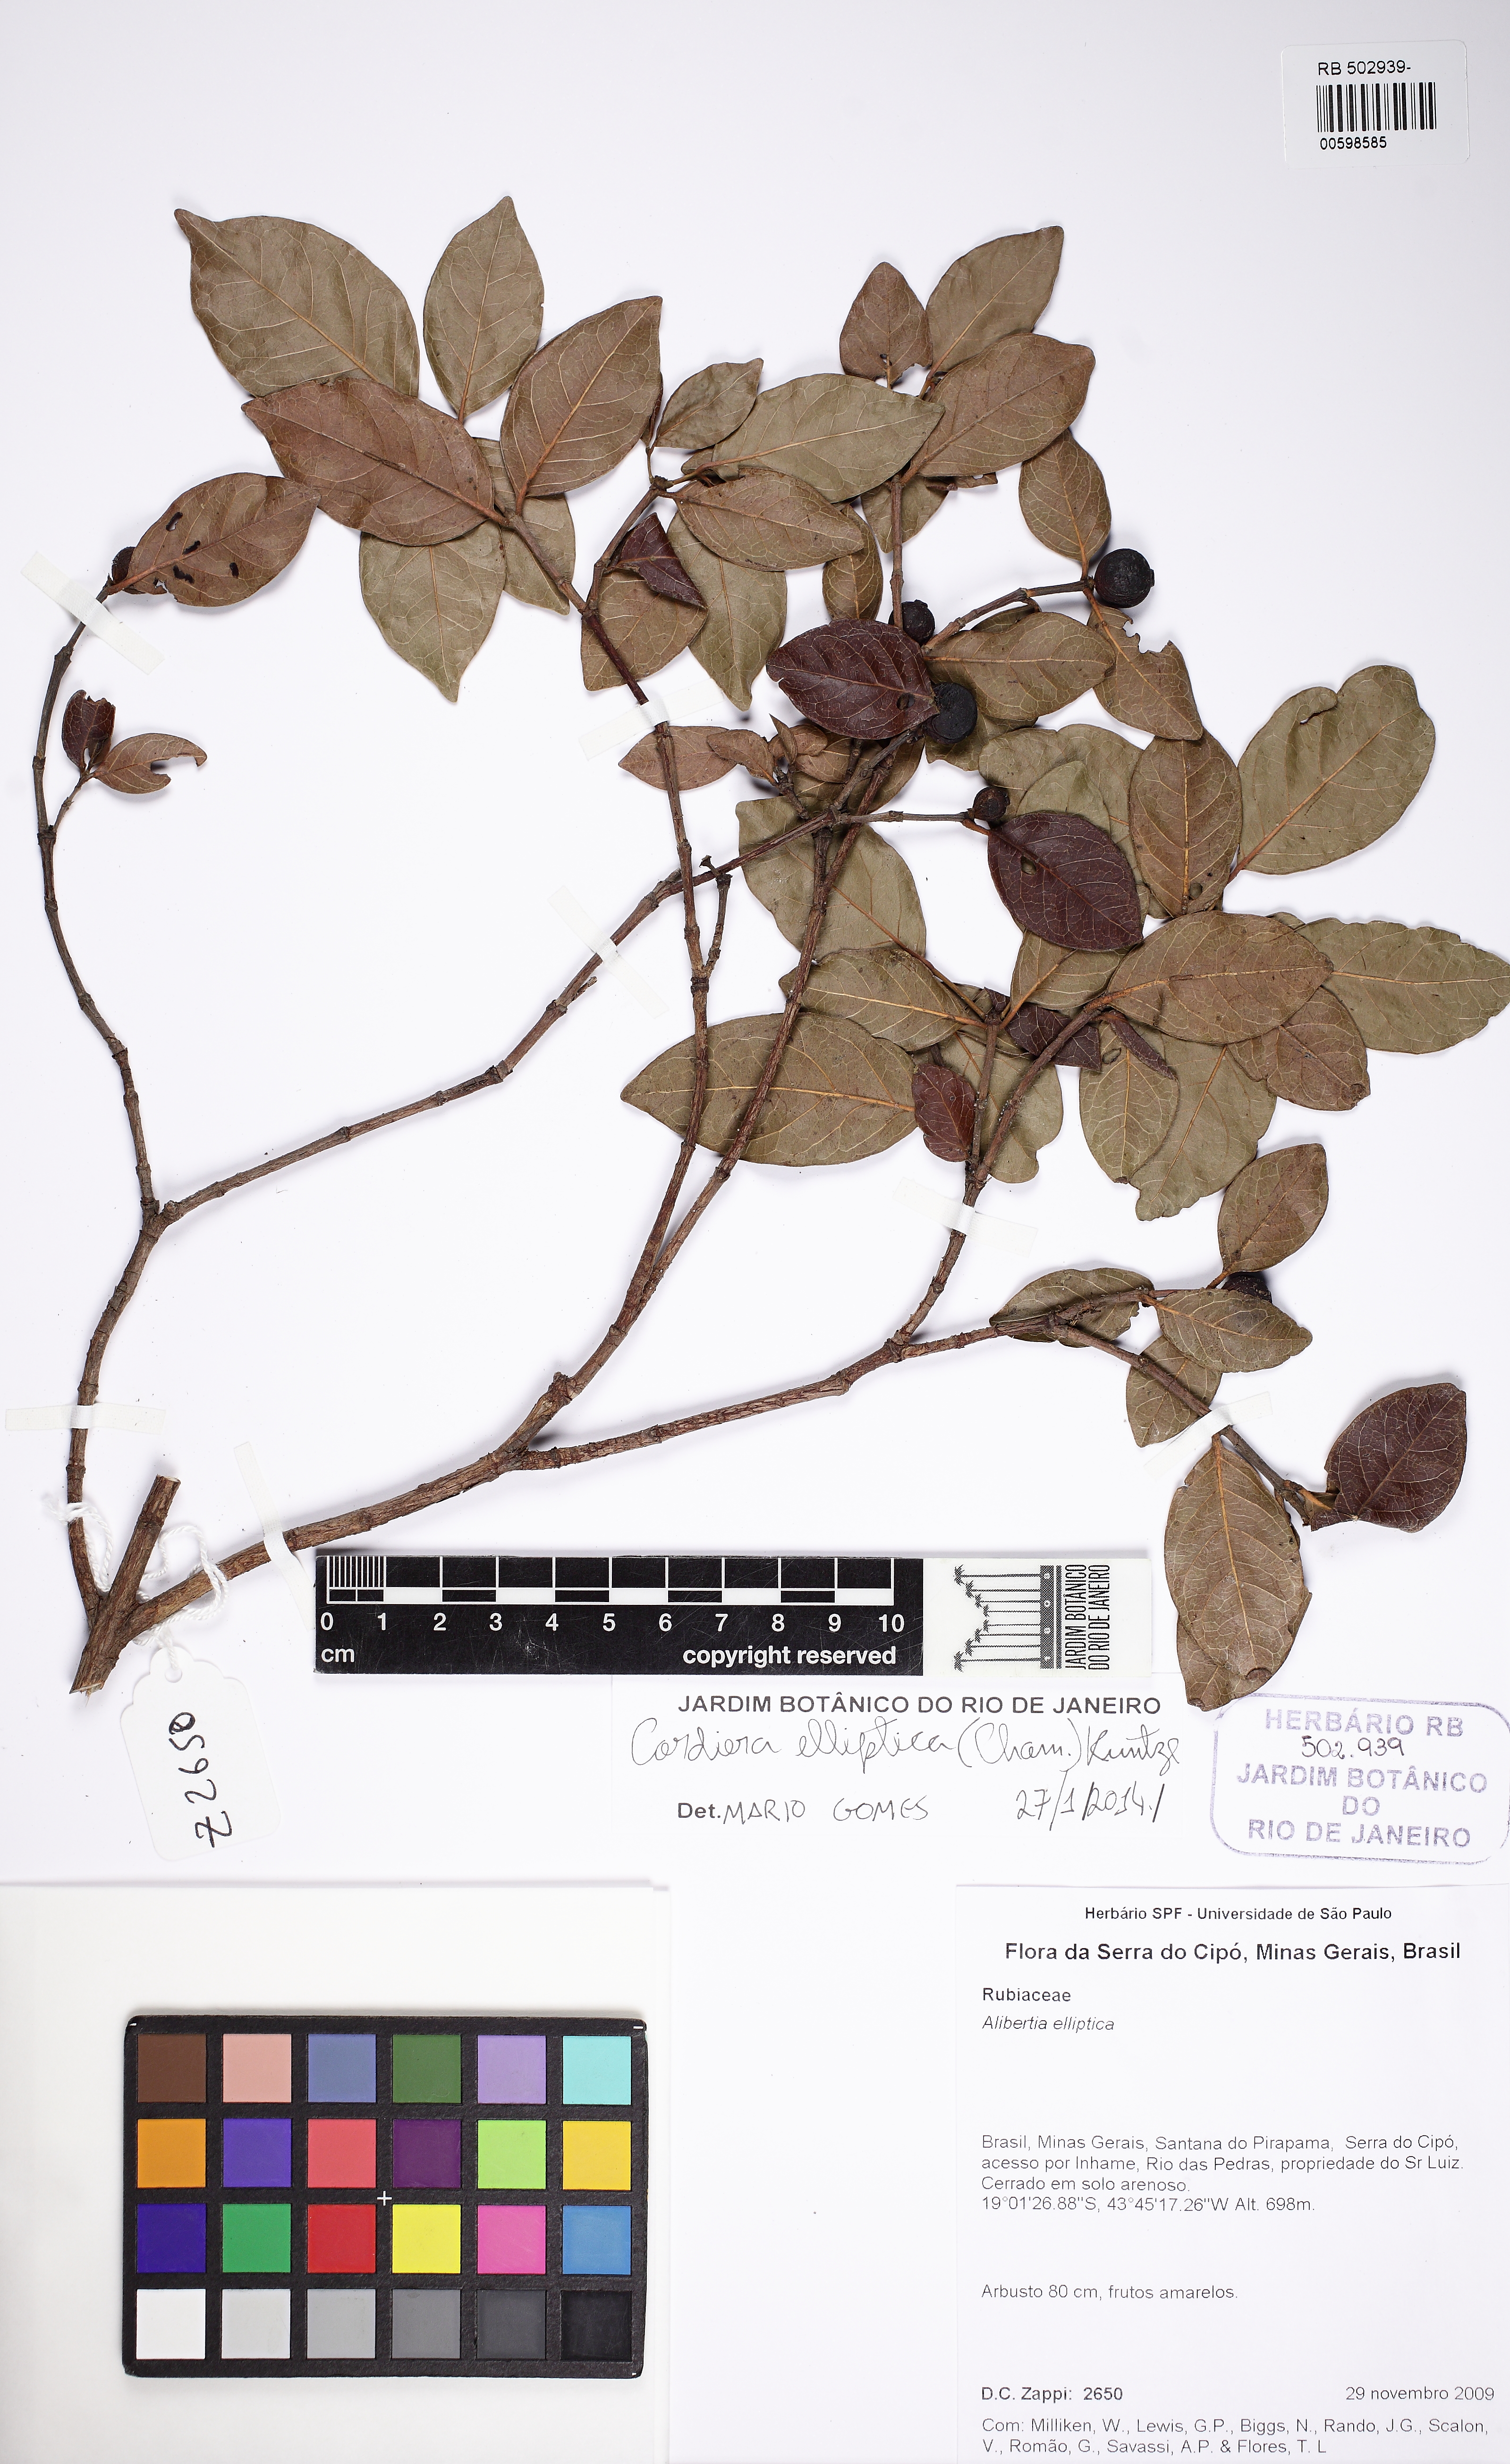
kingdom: Plantae
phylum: Tracheophyta
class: Magnoliopsida
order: Gentianales
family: Rubiaceae
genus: Cordiera
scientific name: Cordiera elliptica
